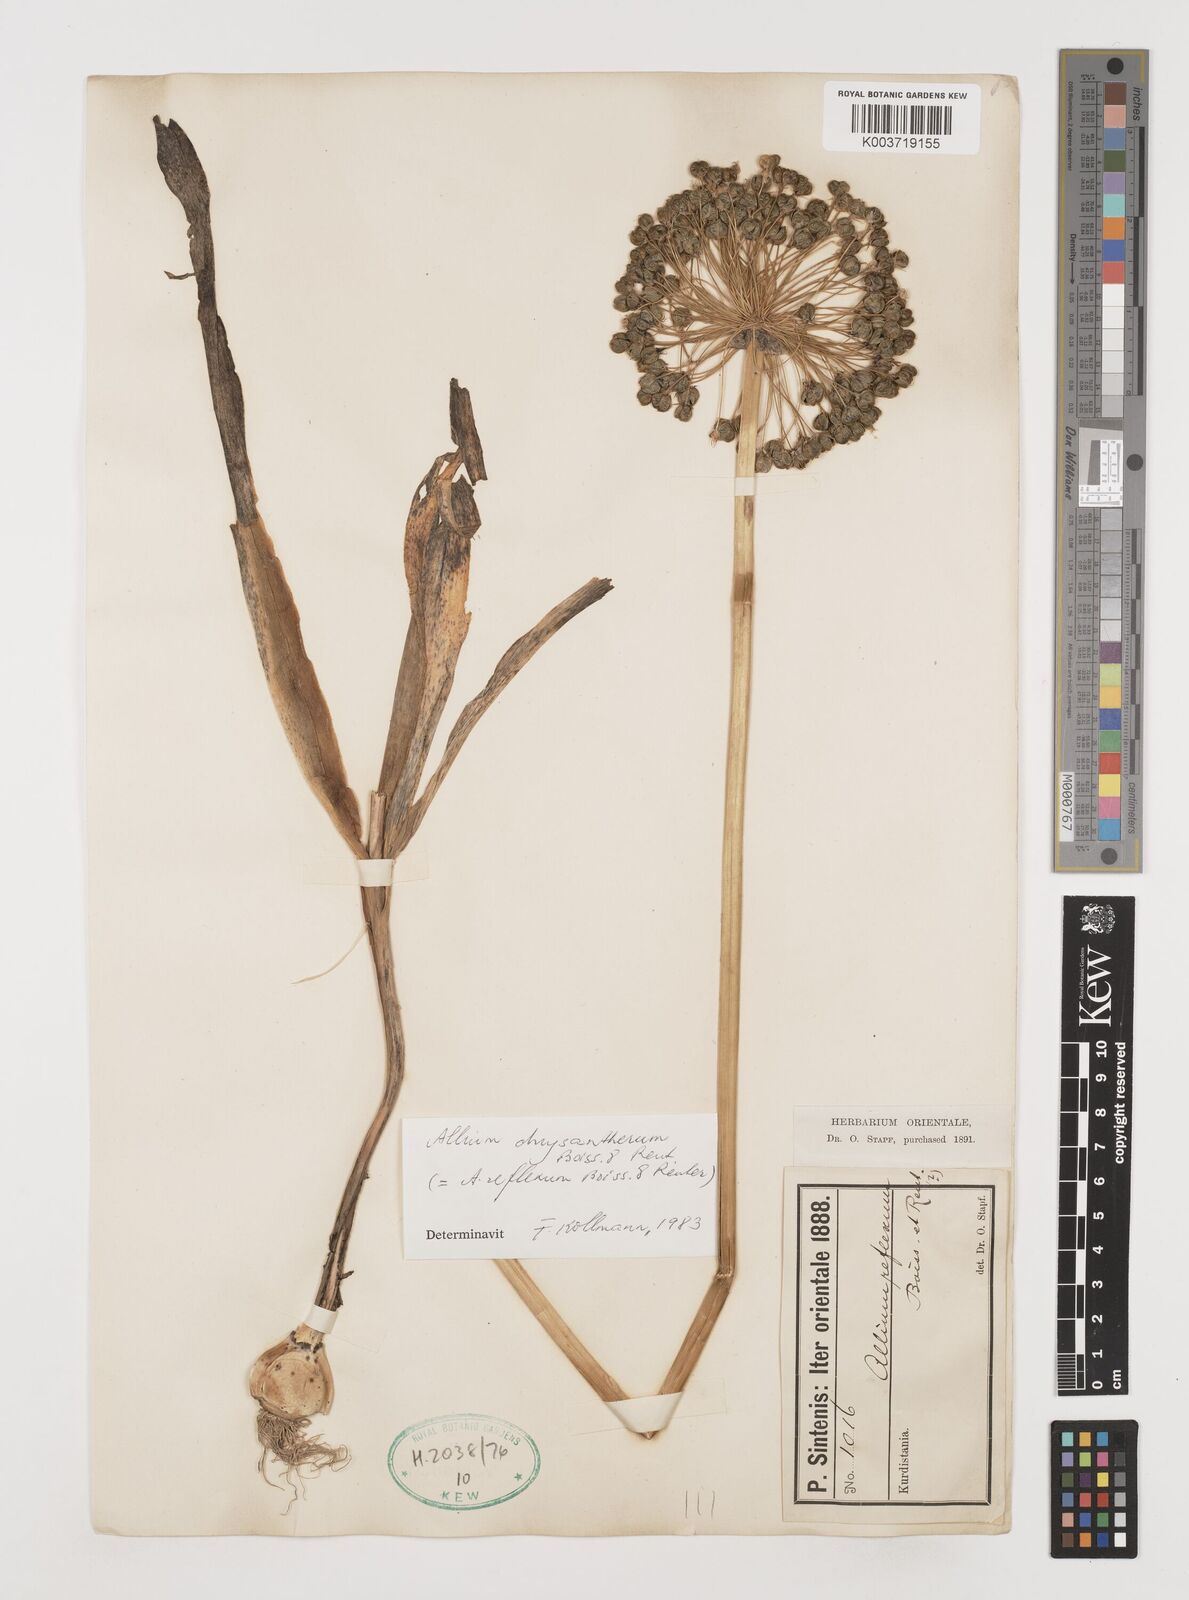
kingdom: Plantae
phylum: Tracheophyta
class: Liliopsida
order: Asparagales
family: Amaryllidaceae
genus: Allium
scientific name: Allium chrysantherum
